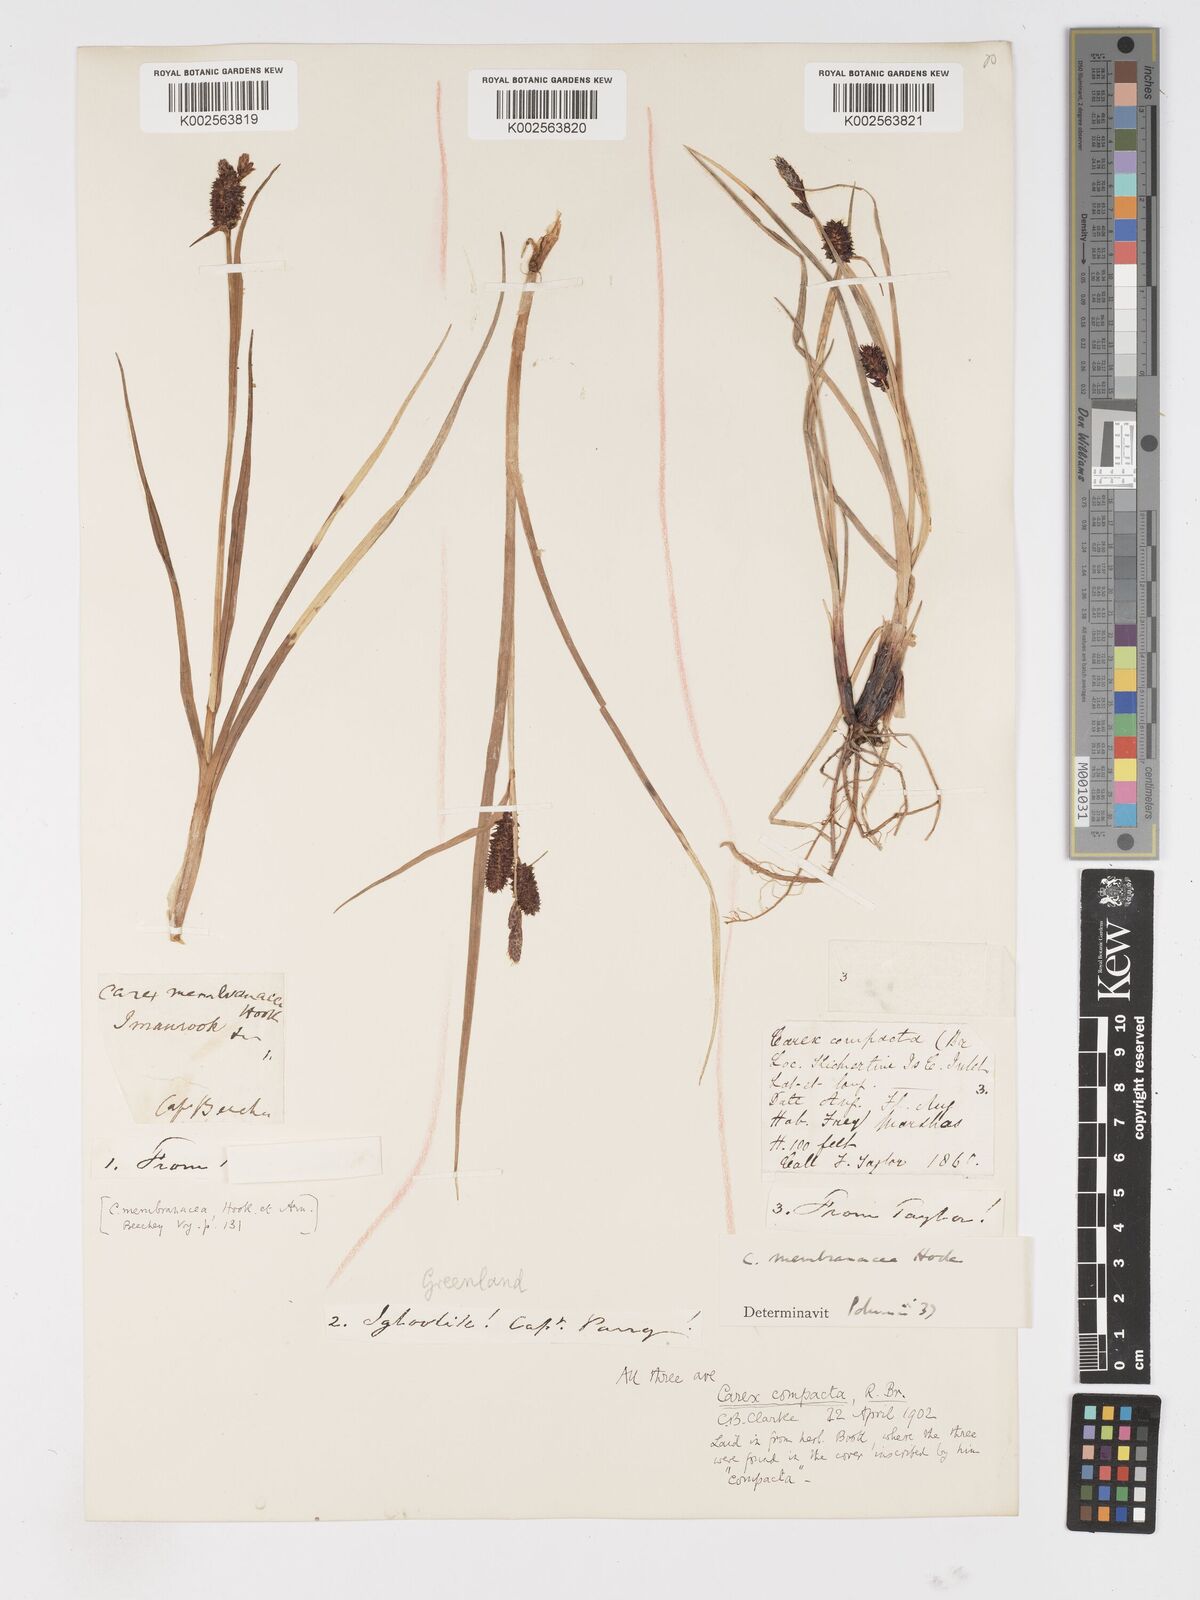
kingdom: Plantae
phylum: Tracheophyta
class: Liliopsida
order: Poales
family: Cyperaceae
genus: Carex
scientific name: Carex membranacea
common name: Fragile sedge
